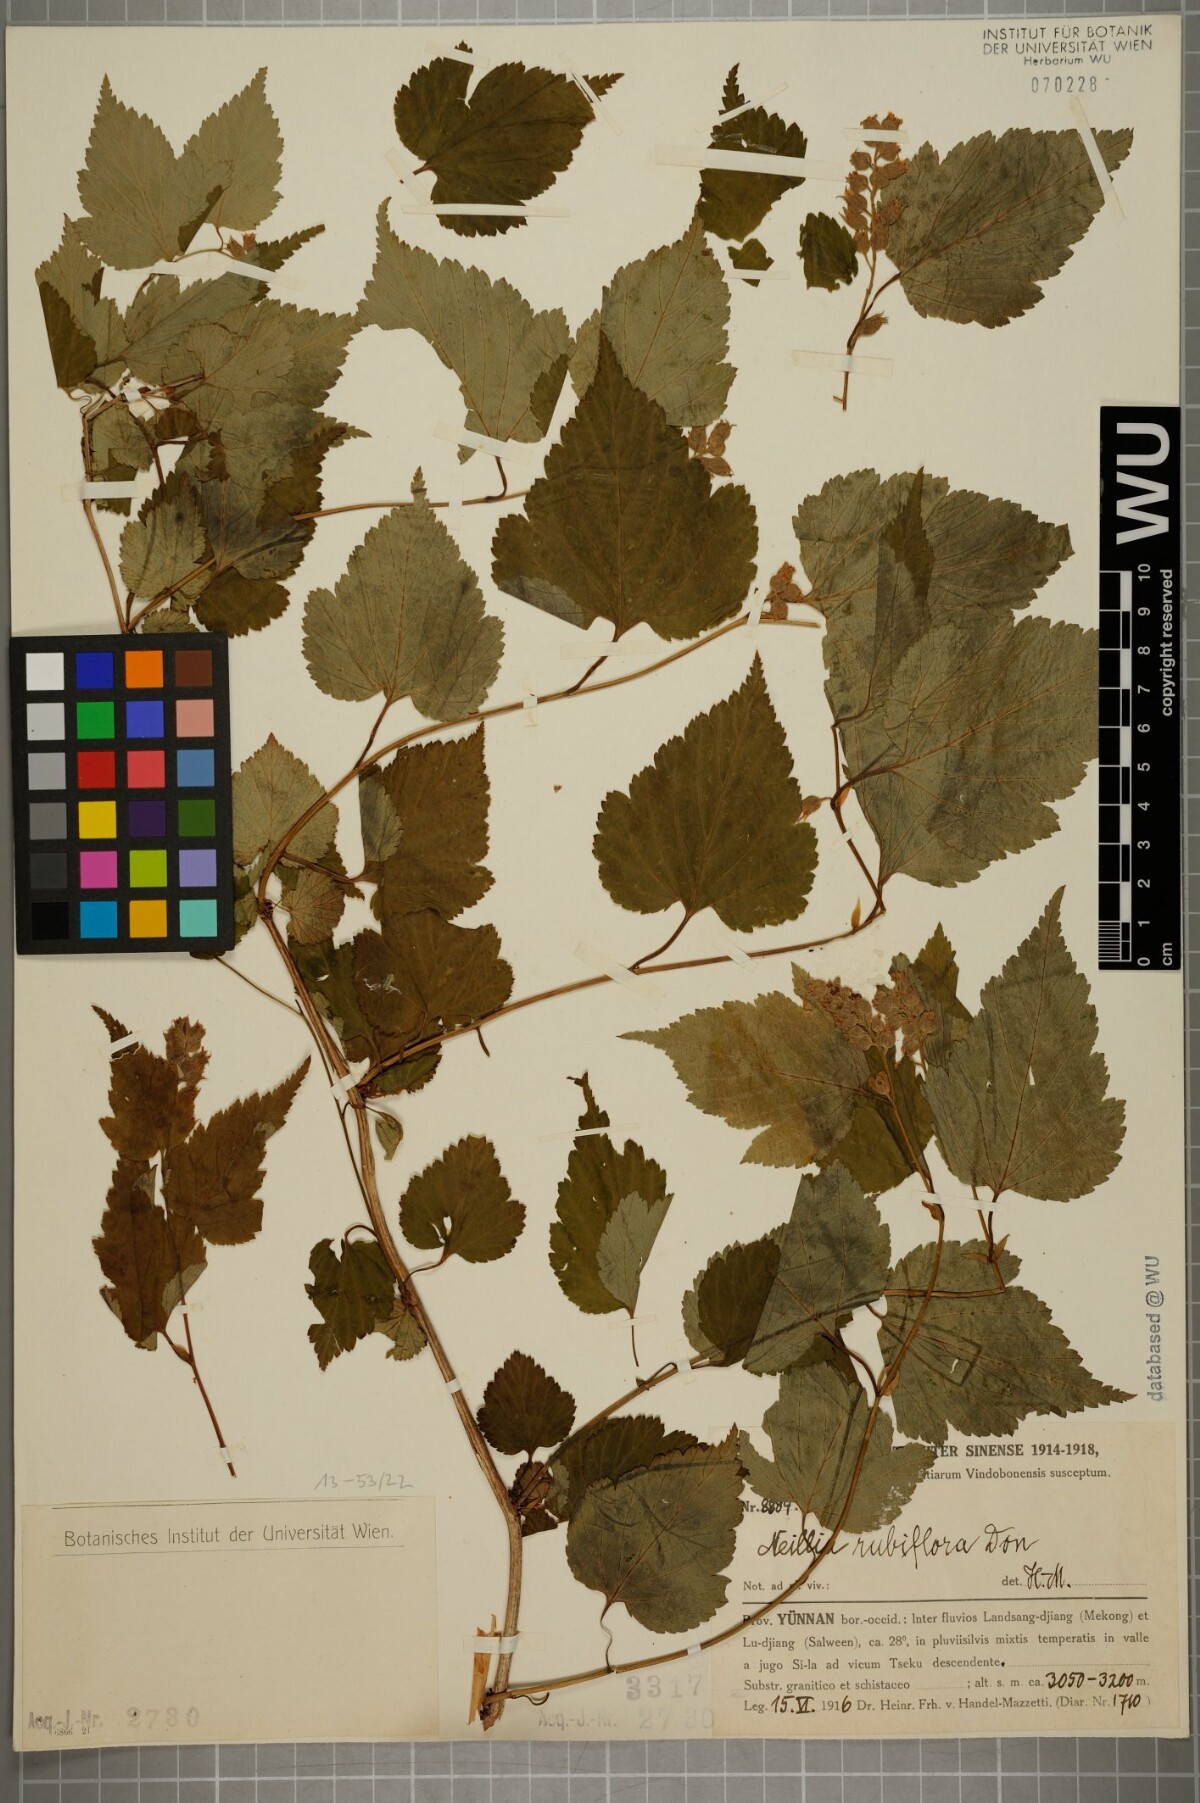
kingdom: Plantae
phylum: Tracheophyta
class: Magnoliopsida
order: Rosales
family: Rosaceae
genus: Neillia
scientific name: Neillia rubiflora
